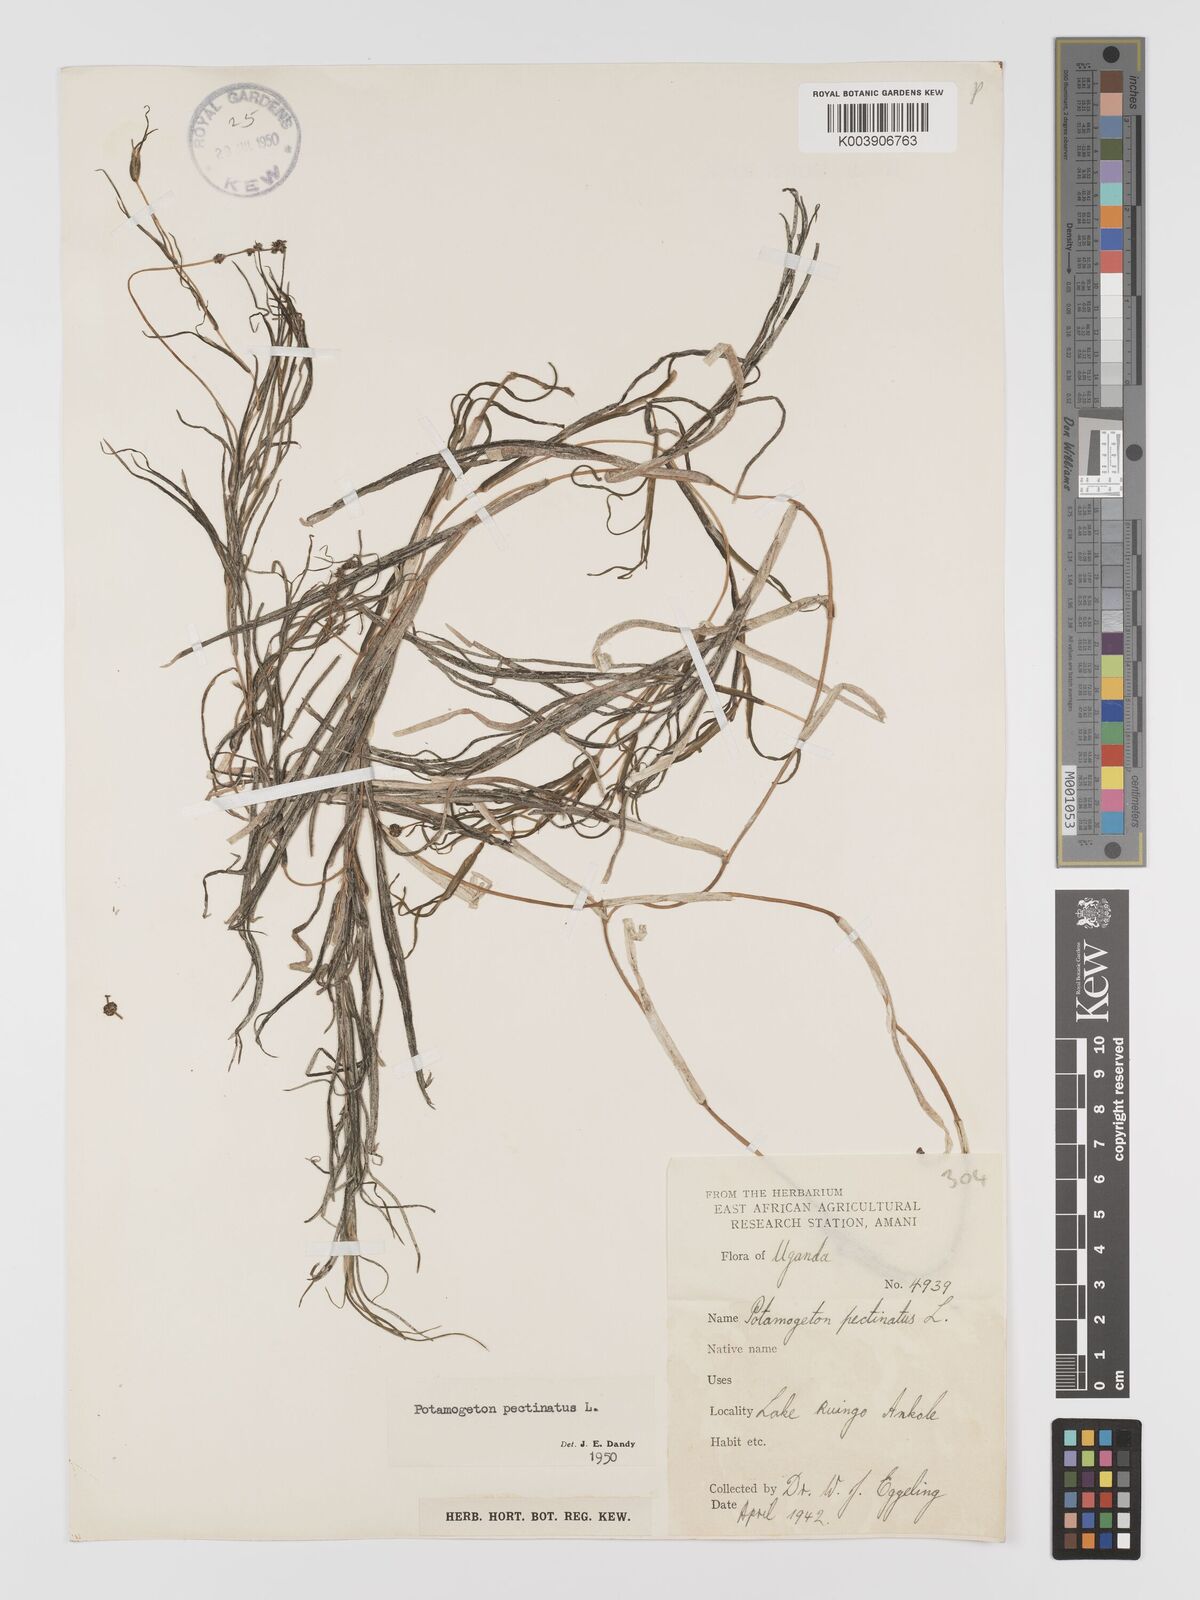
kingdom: Plantae
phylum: Tracheophyta
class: Liliopsida
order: Alismatales
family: Potamogetonaceae
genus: Stuckenia
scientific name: Stuckenia pectinata
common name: Sago pondweed
